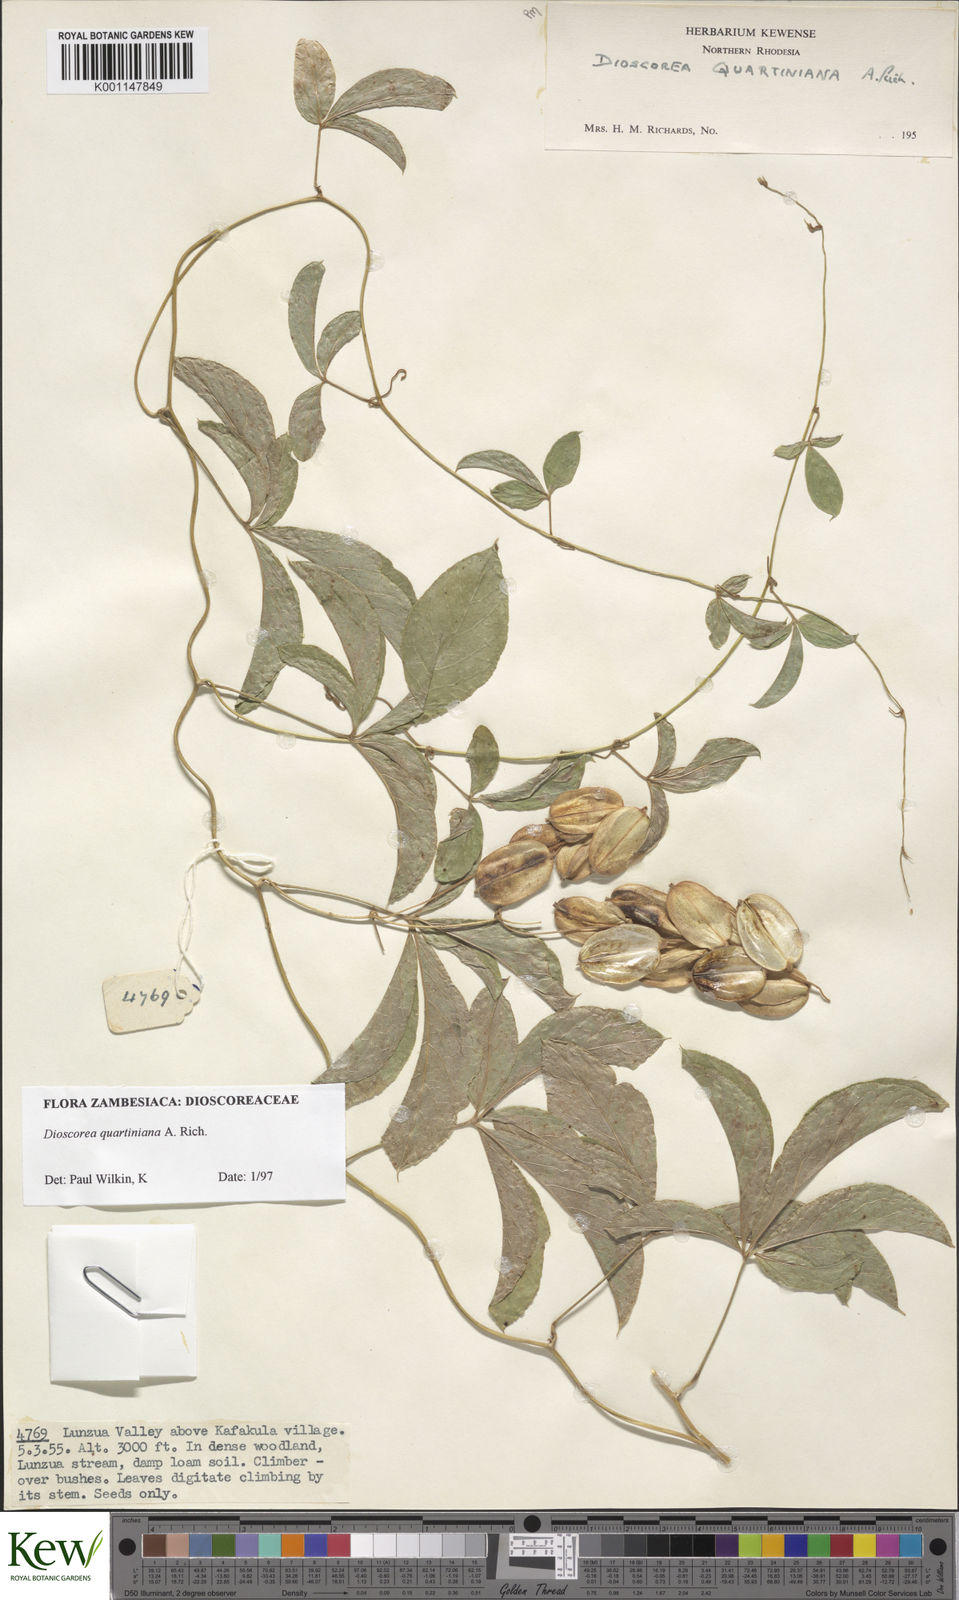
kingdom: Plantae
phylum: Tracheophyta
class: Liliopsida
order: Dioscoreales
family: Dioscoreaceae
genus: Dioscorea
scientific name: Dioscorea quartiniana
